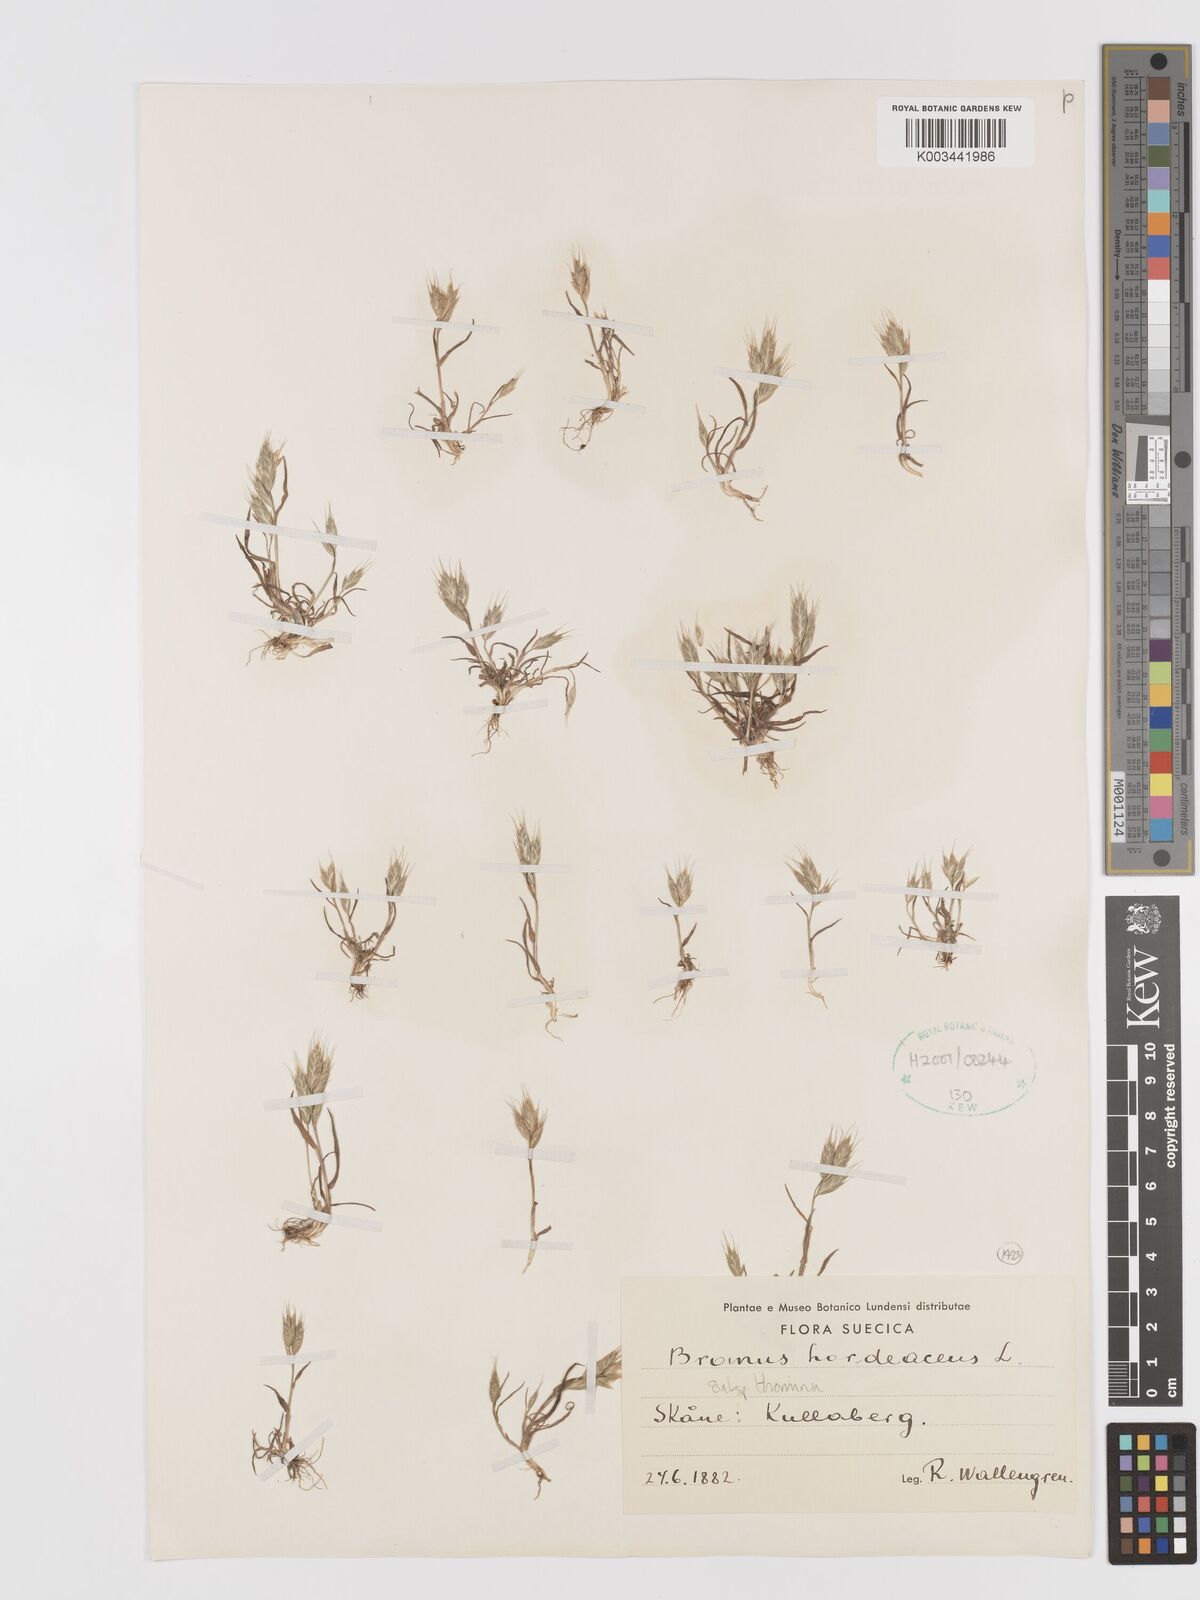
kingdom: Plantae
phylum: Tracheophyta
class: Liliopsida
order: Poales
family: Poaceae
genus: Bromus
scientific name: Bromus hordeaceus
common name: Soft brome
